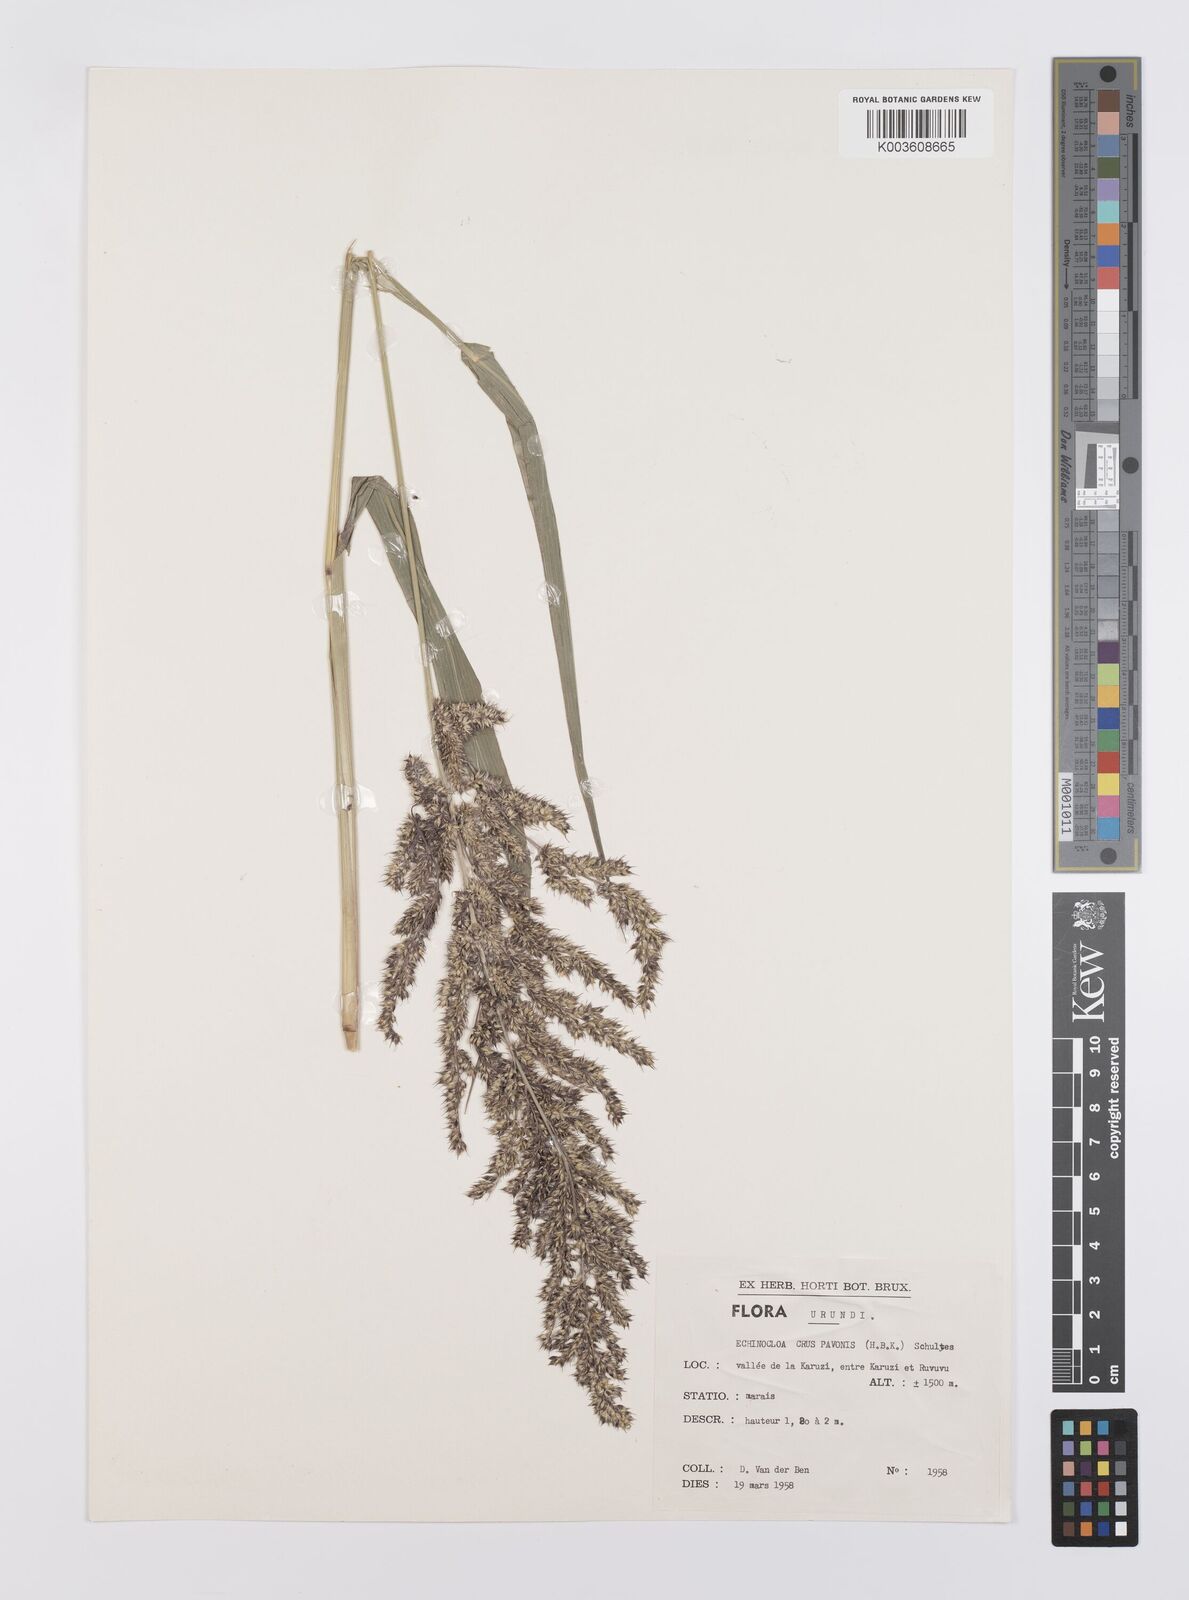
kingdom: Plantae
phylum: Tracheophyta
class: Liliopsida
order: Poales
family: Poaceae
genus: Echinochloa
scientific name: Echinochloa crus-pavonis
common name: Gulf cockspur grass
